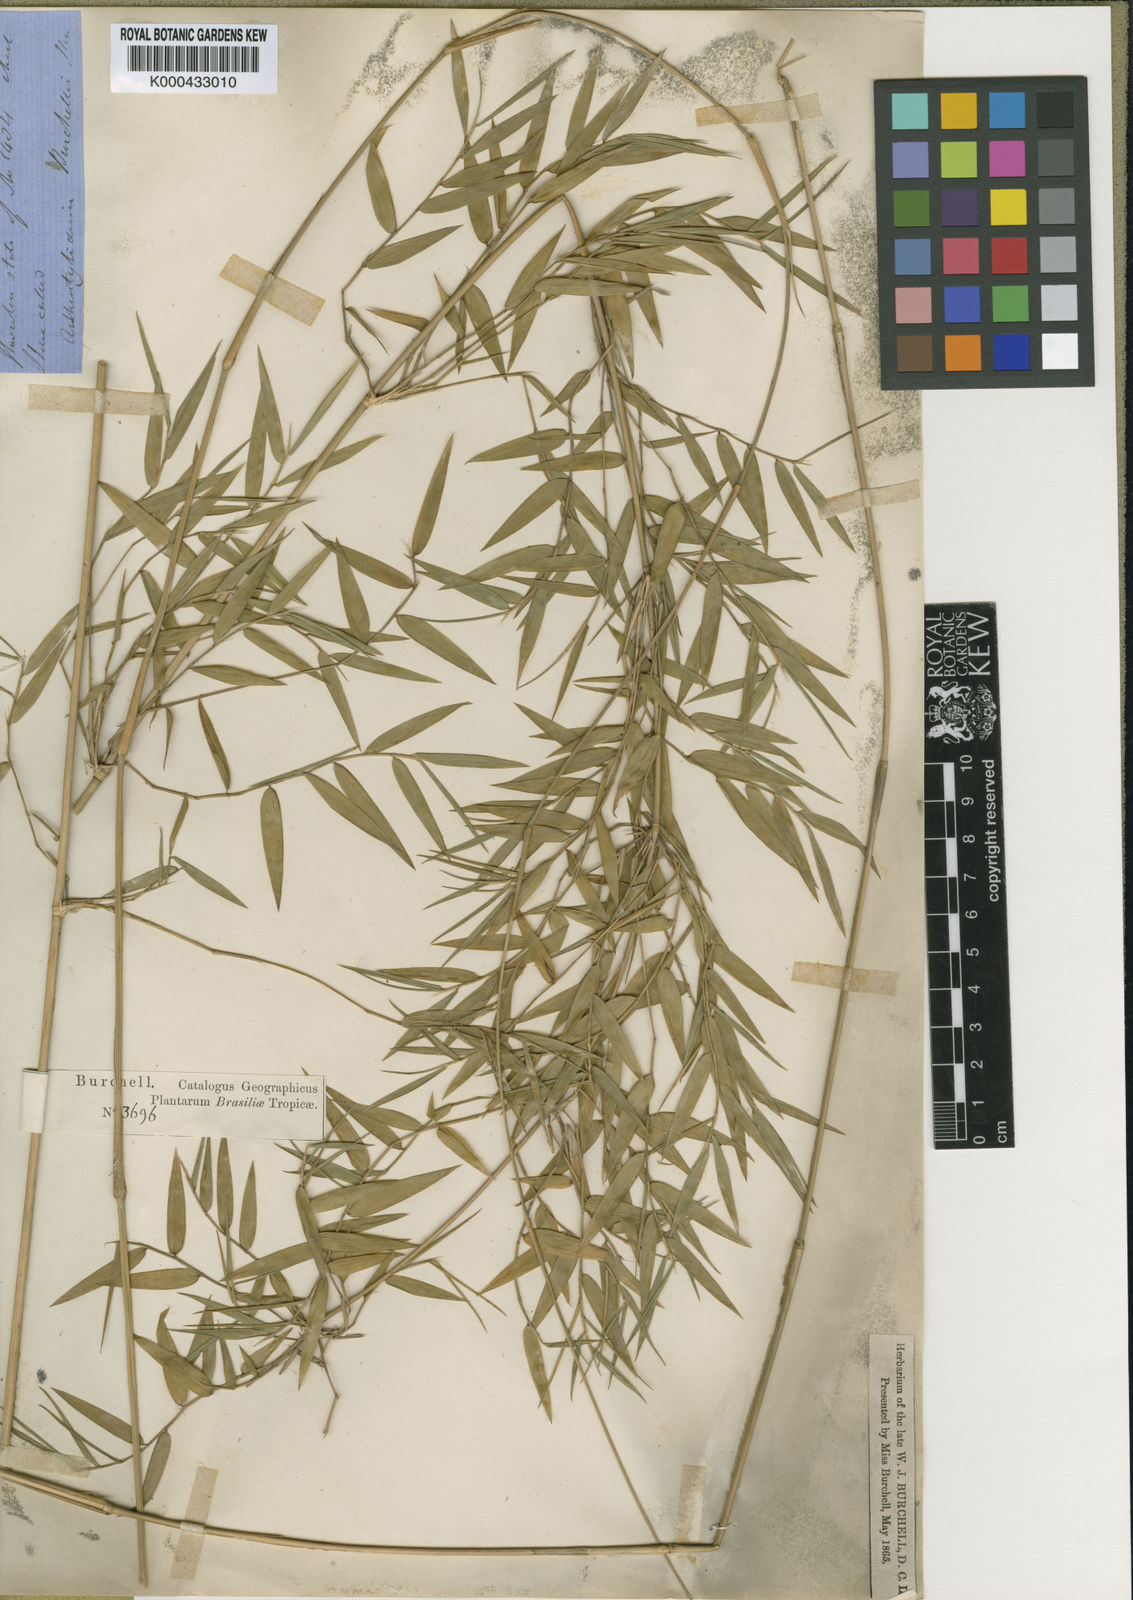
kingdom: Plantae
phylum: Tracheophyta
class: Liliopsida
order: Poales
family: Poaceae
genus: Colanthelia
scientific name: Colanthelia burchellii
